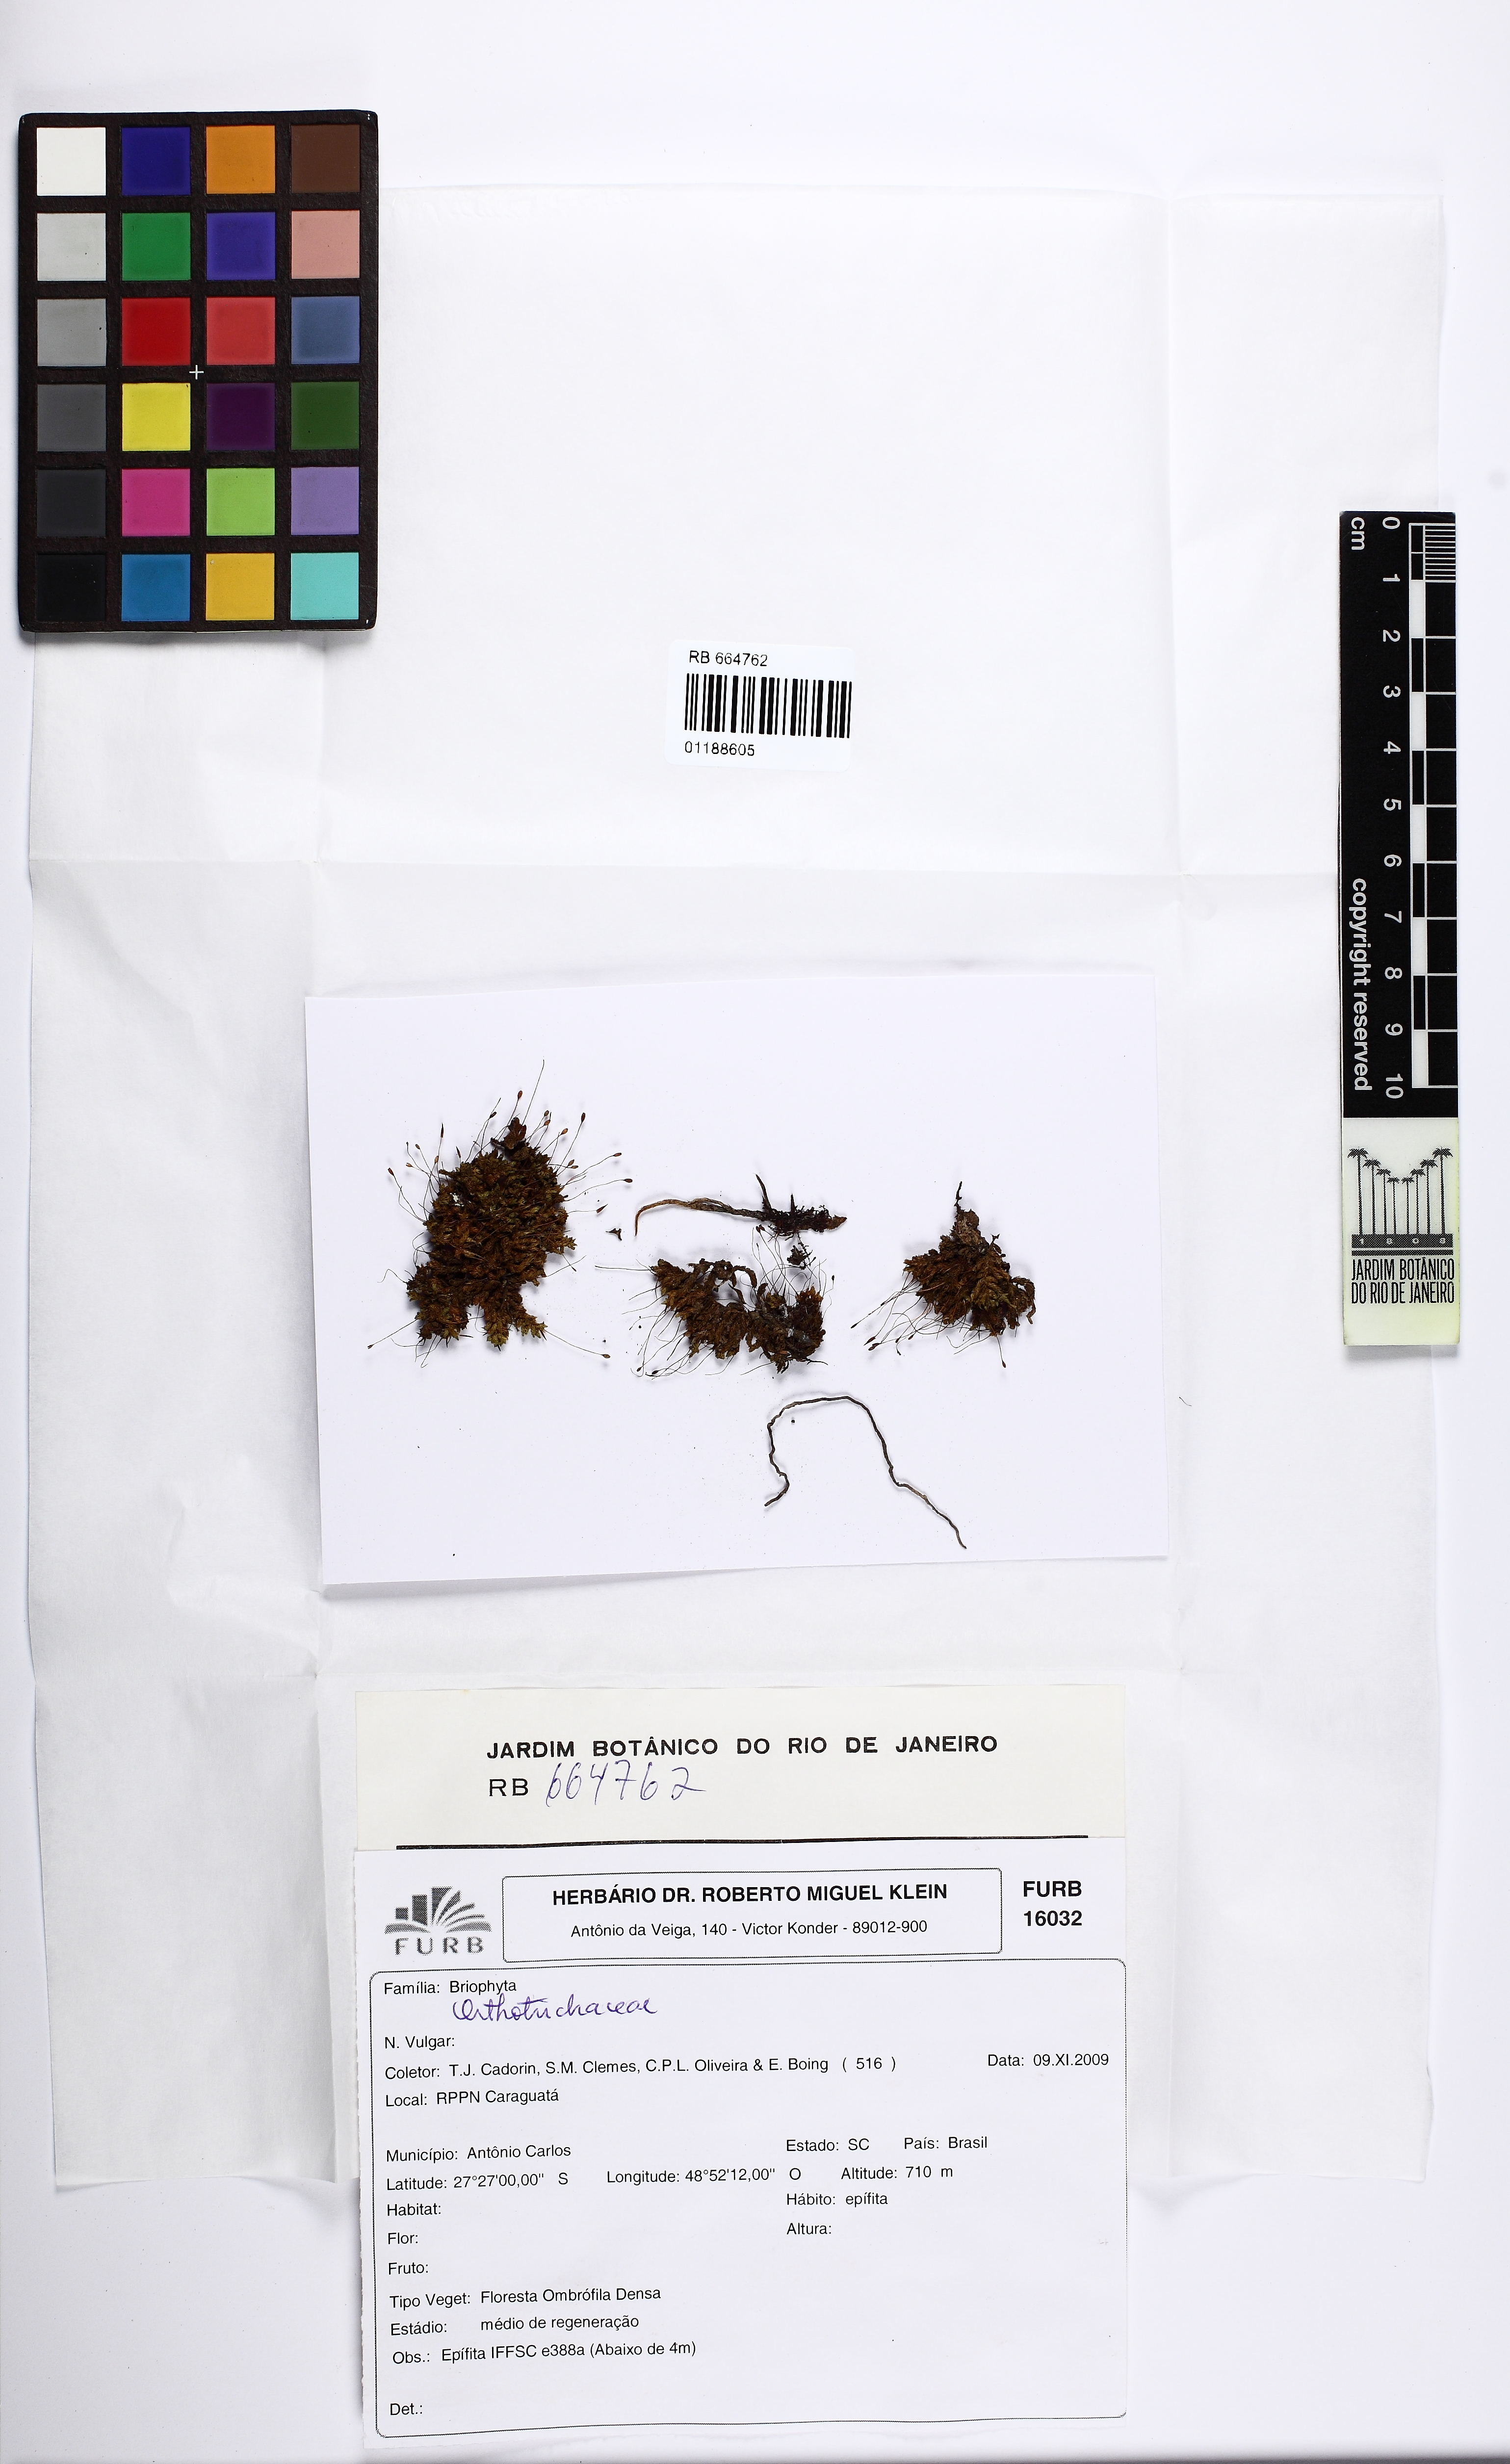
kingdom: Plantae
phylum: Bryophyta
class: Bryopsida
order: Orthotrichales
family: Orthotrichaceae
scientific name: Orthotrichaceae
